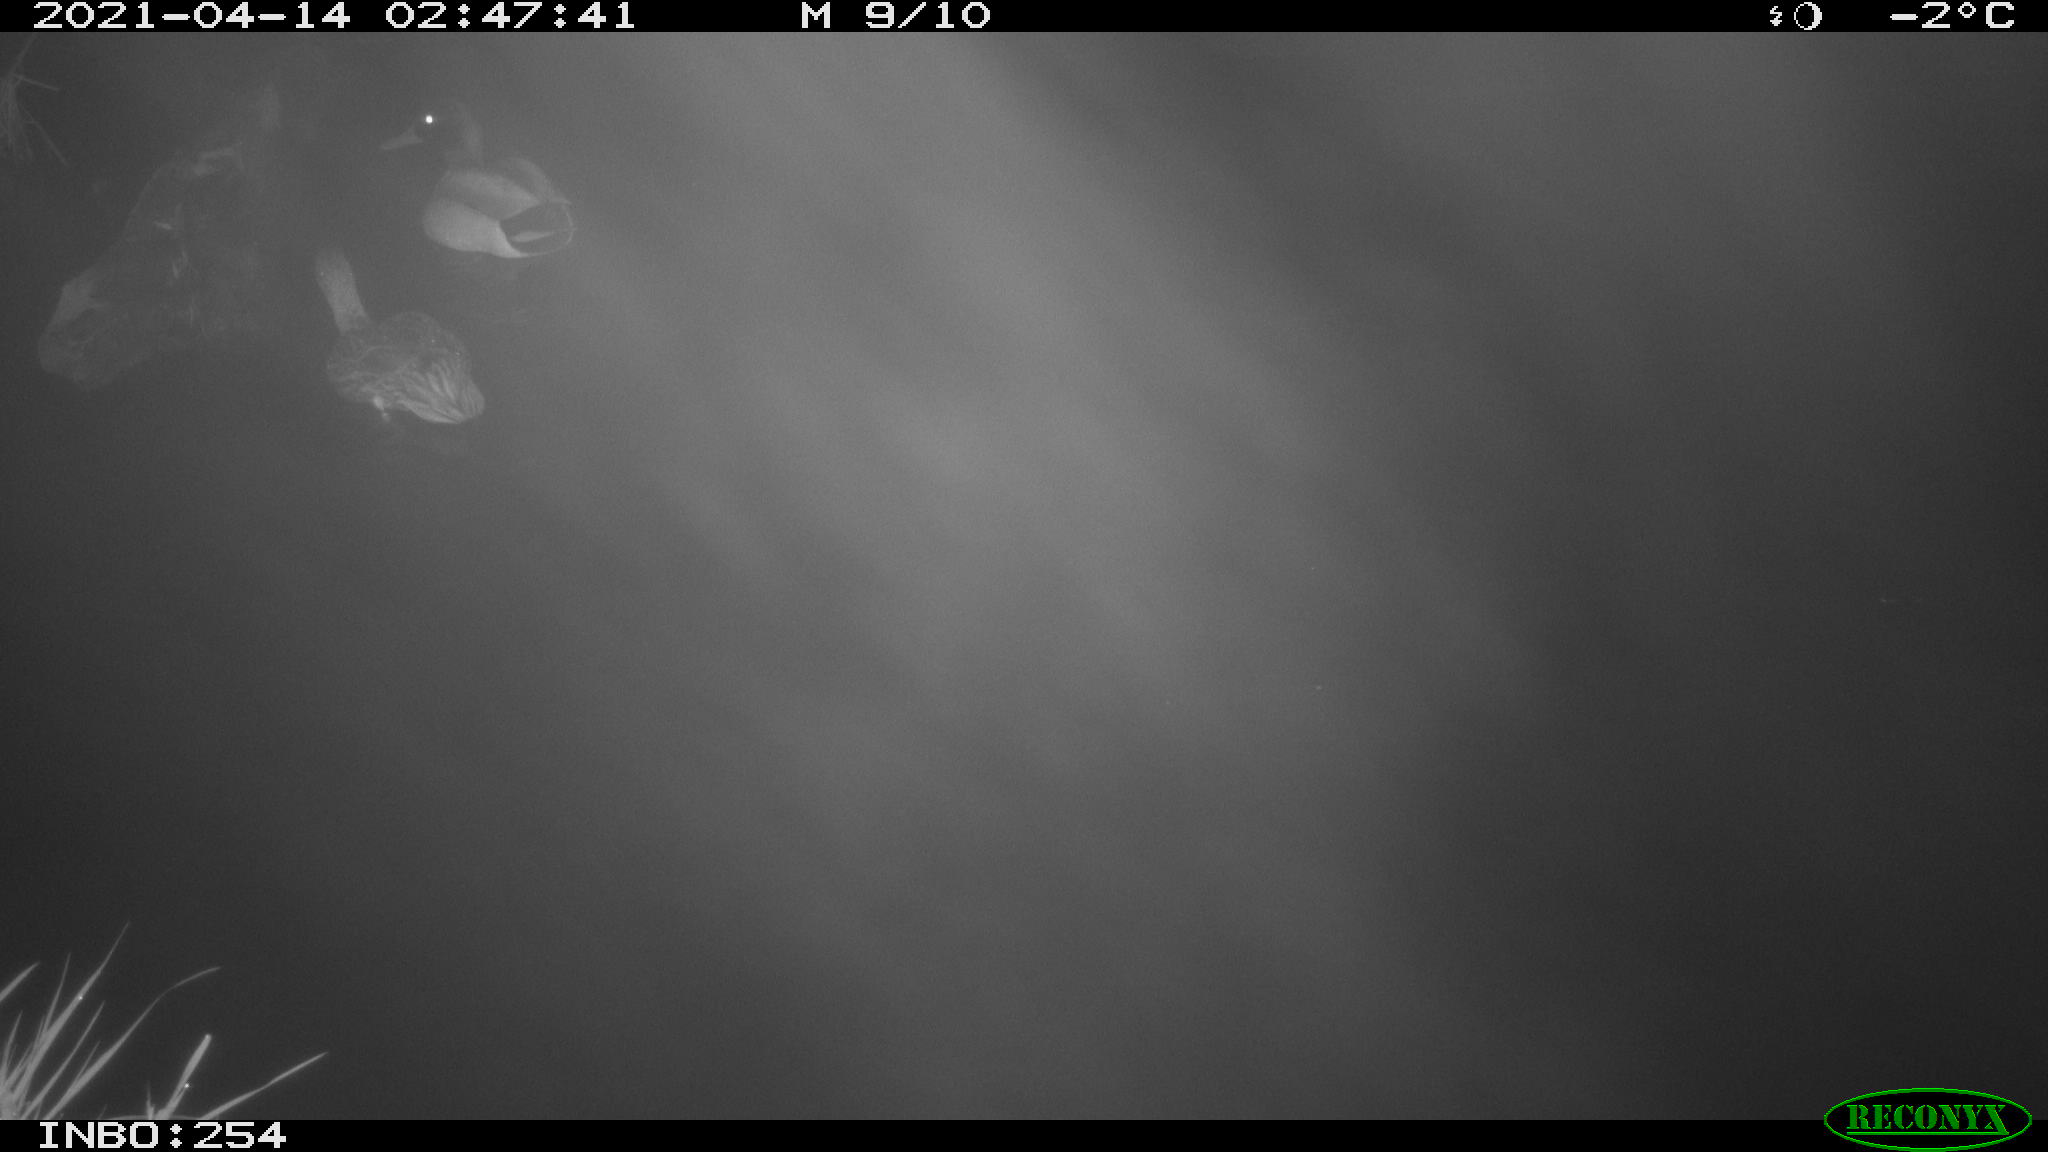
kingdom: Animalia
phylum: Chordata
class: Aves
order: Anseriformes
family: Anatidae
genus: Anas
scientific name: Anas
